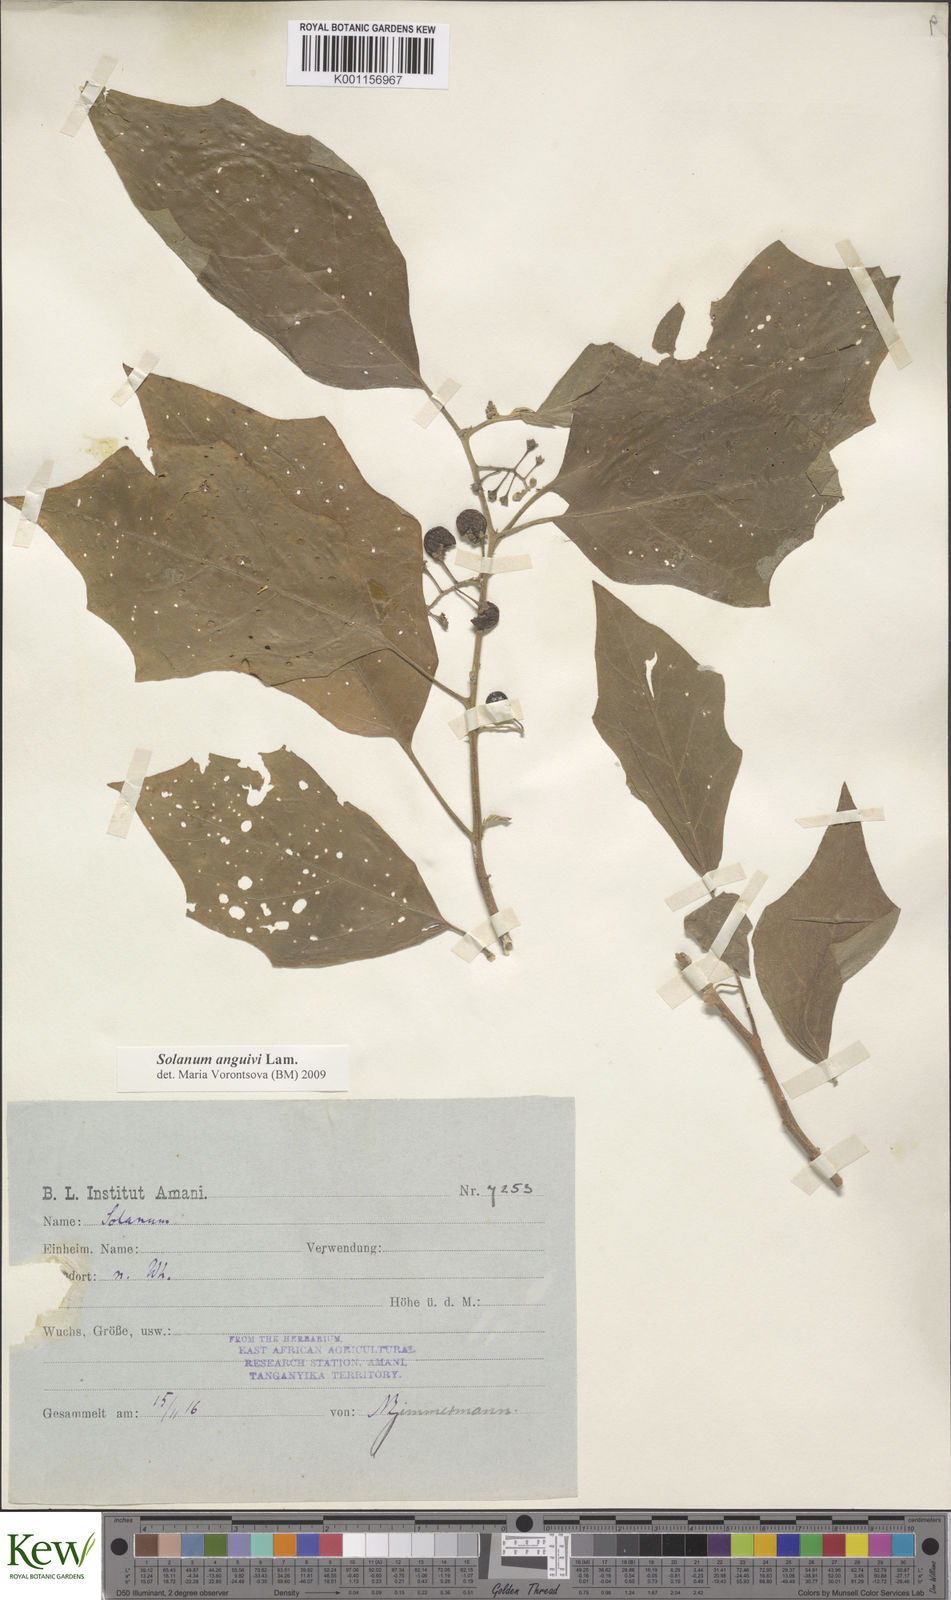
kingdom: Plantae
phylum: Tracheophyta
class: Magnoliopsida
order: Solanales
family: Solanaceae
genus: Solanum
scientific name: Solanum anguivi
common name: Forest bitterberry
